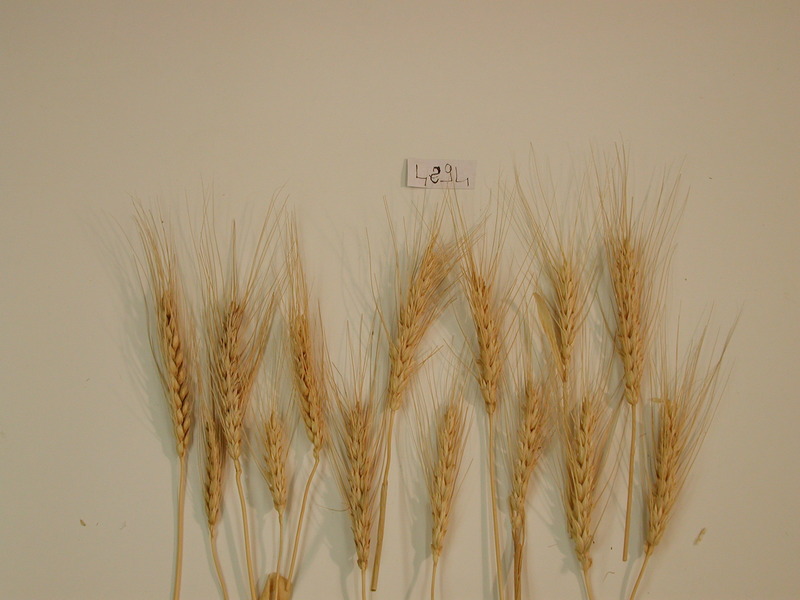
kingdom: Plantae
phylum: Tracheophyta
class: Liliopsida
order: Poales
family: Poaceae
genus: Triticum
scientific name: Triticum aestivum
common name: Common wheat
